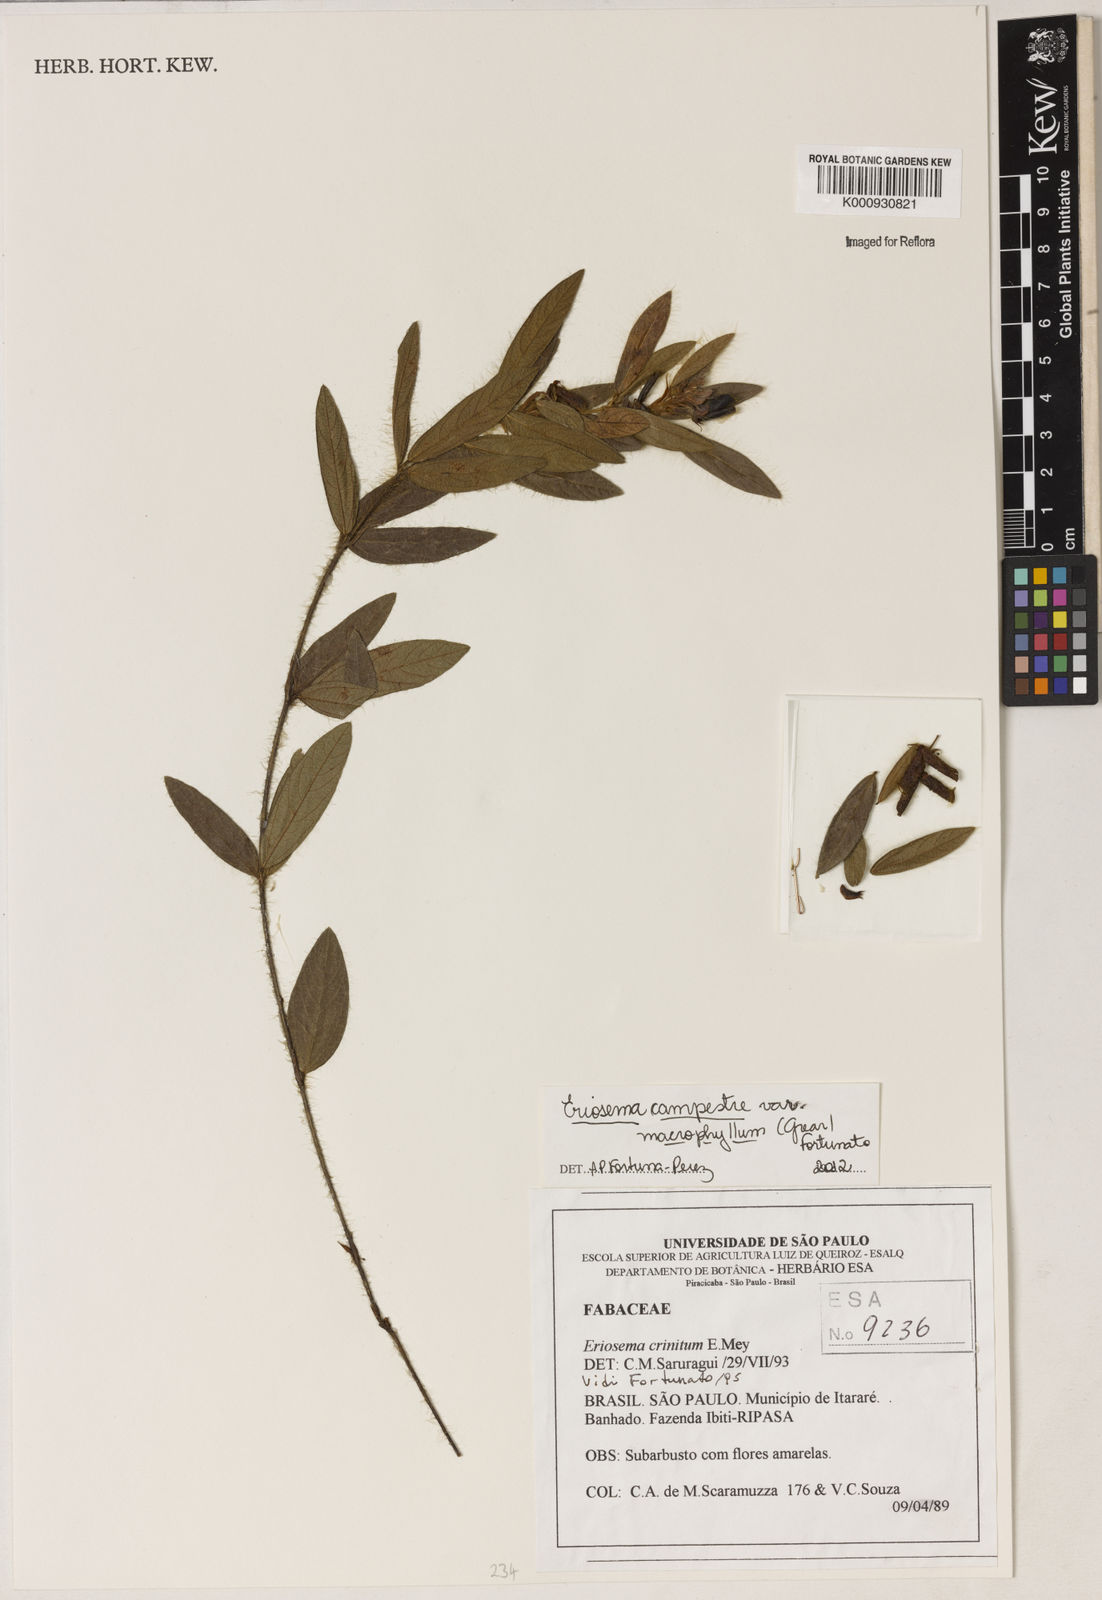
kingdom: Plantae
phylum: Tracheophyta
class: Magnoliopsida
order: Fabales
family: Fabaceae
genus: Eriosema
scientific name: Eriosema campestre
